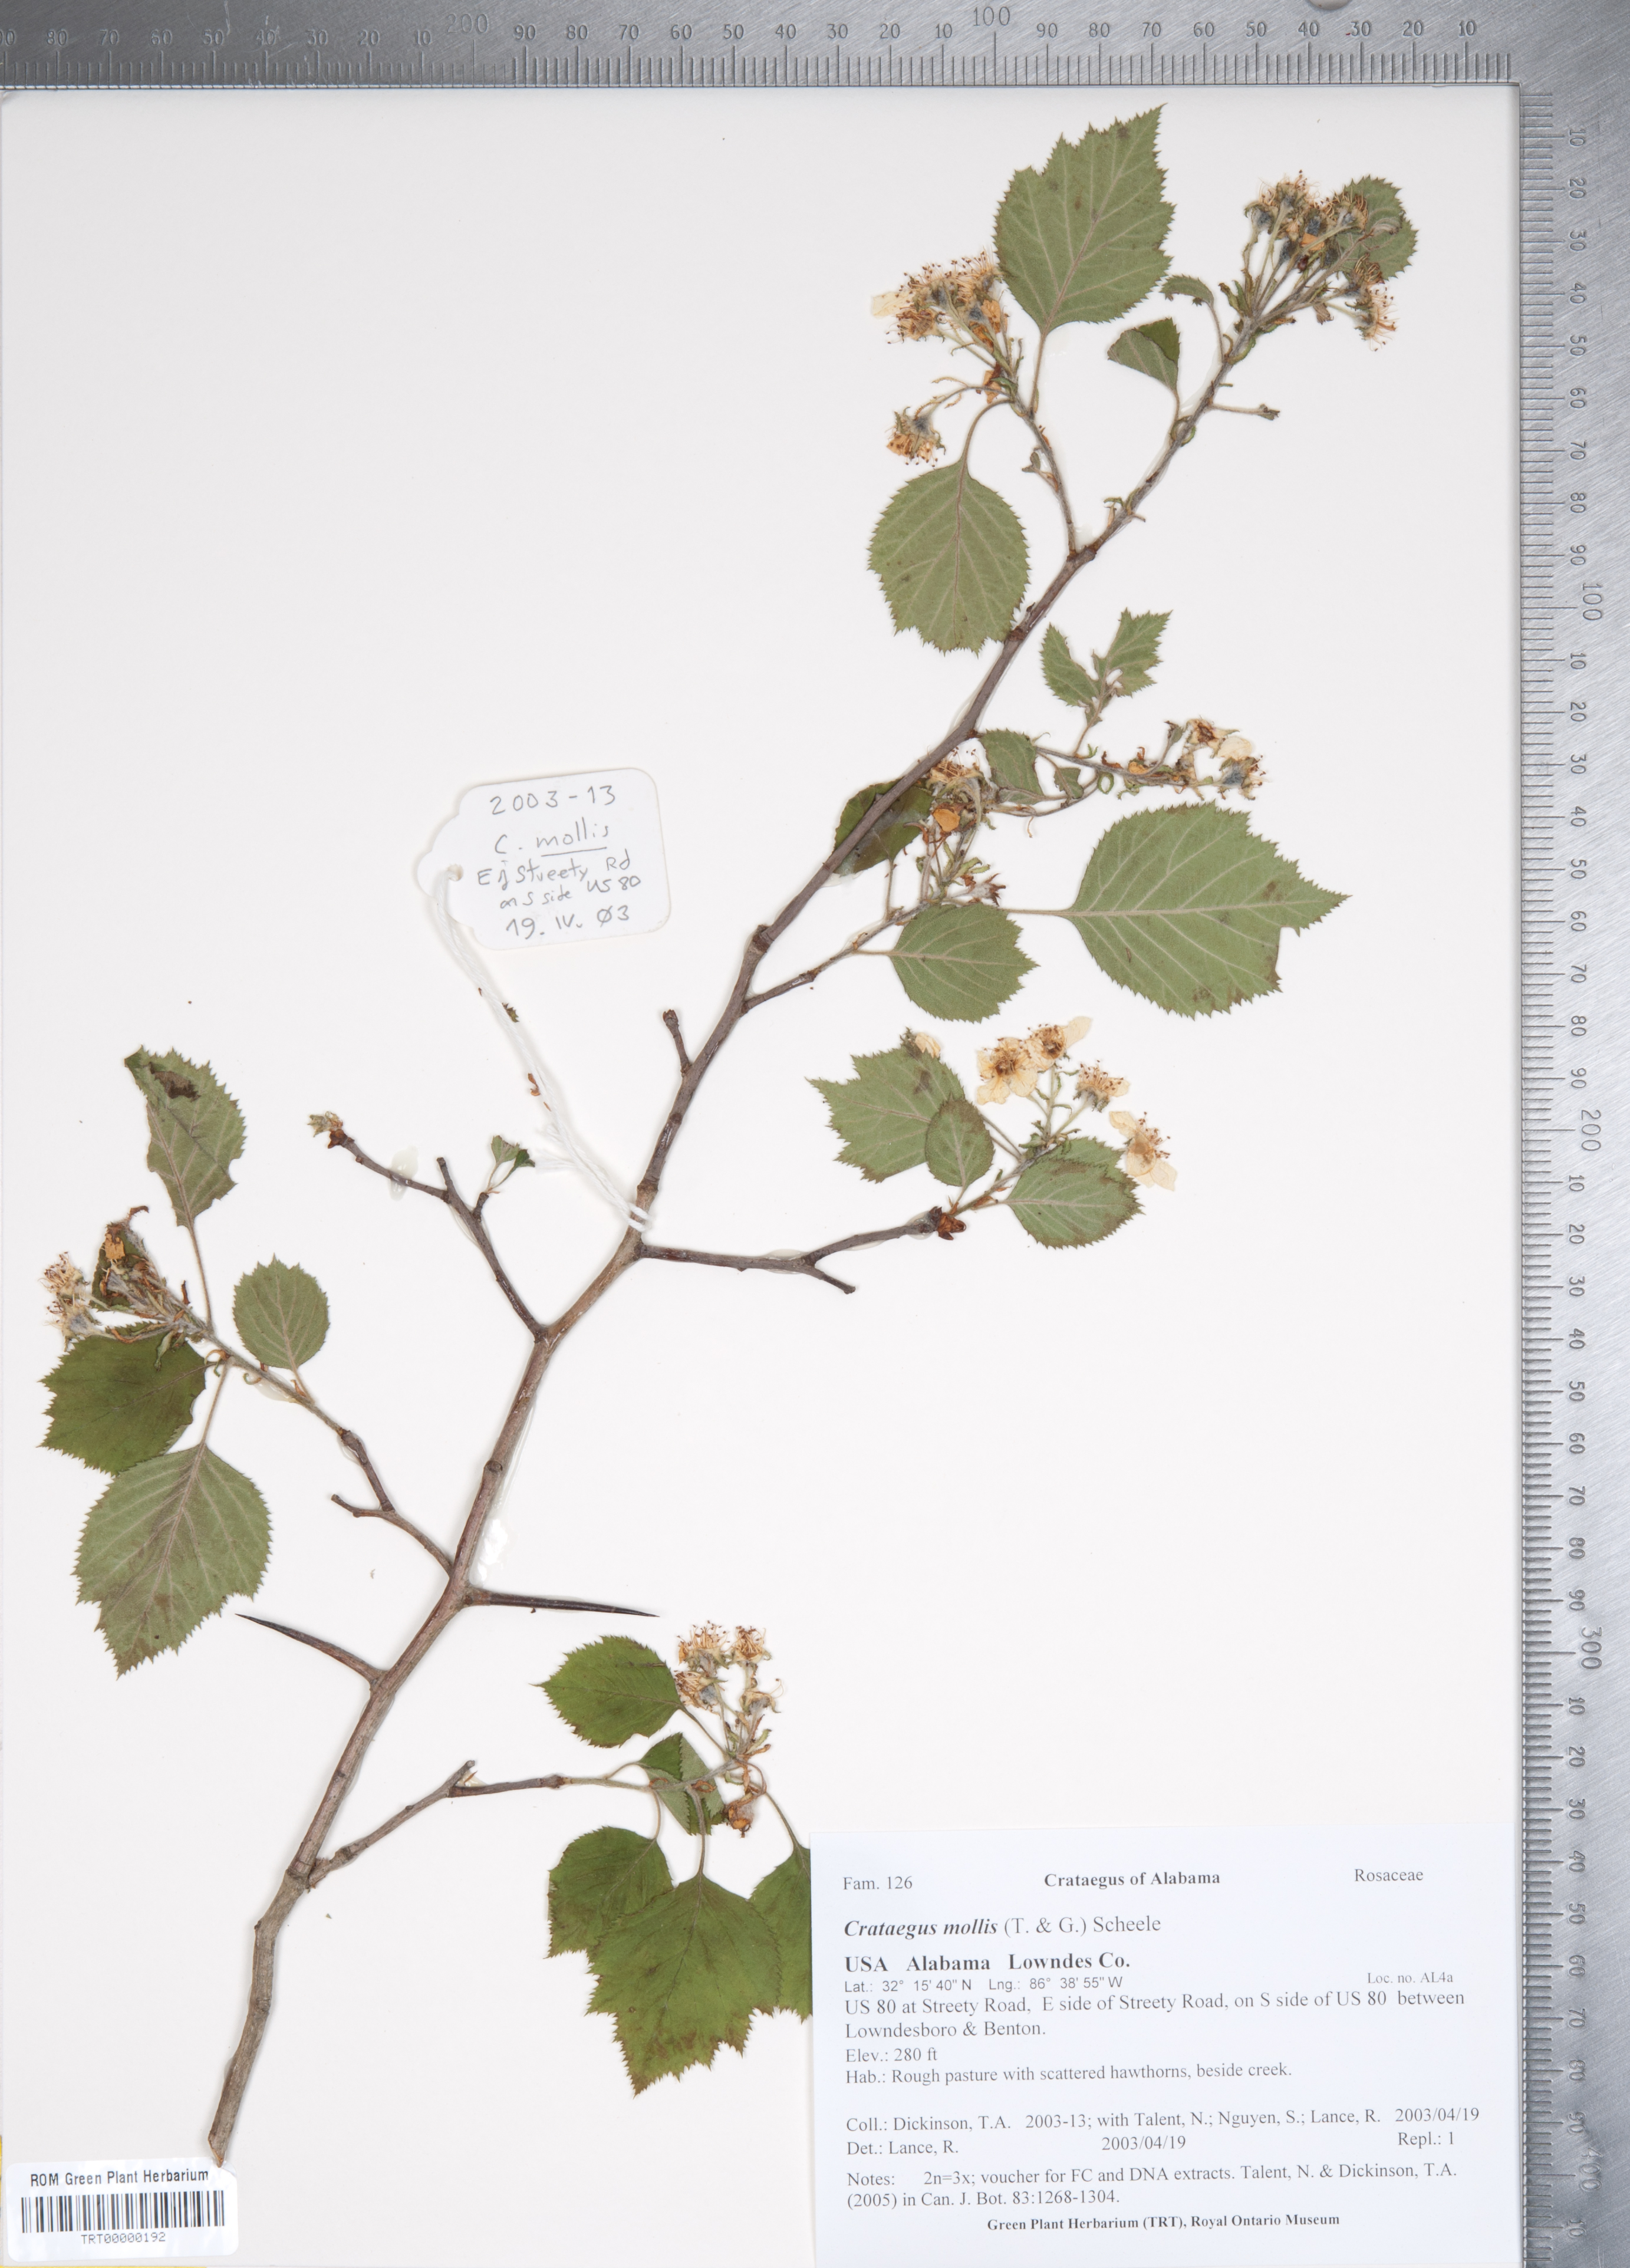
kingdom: Plantae
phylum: Tracheophyta
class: Magnoliopsida
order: Rosales
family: Rosaceae
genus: Crataegus
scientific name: Crataegus mollis
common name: Downy hawthorn
